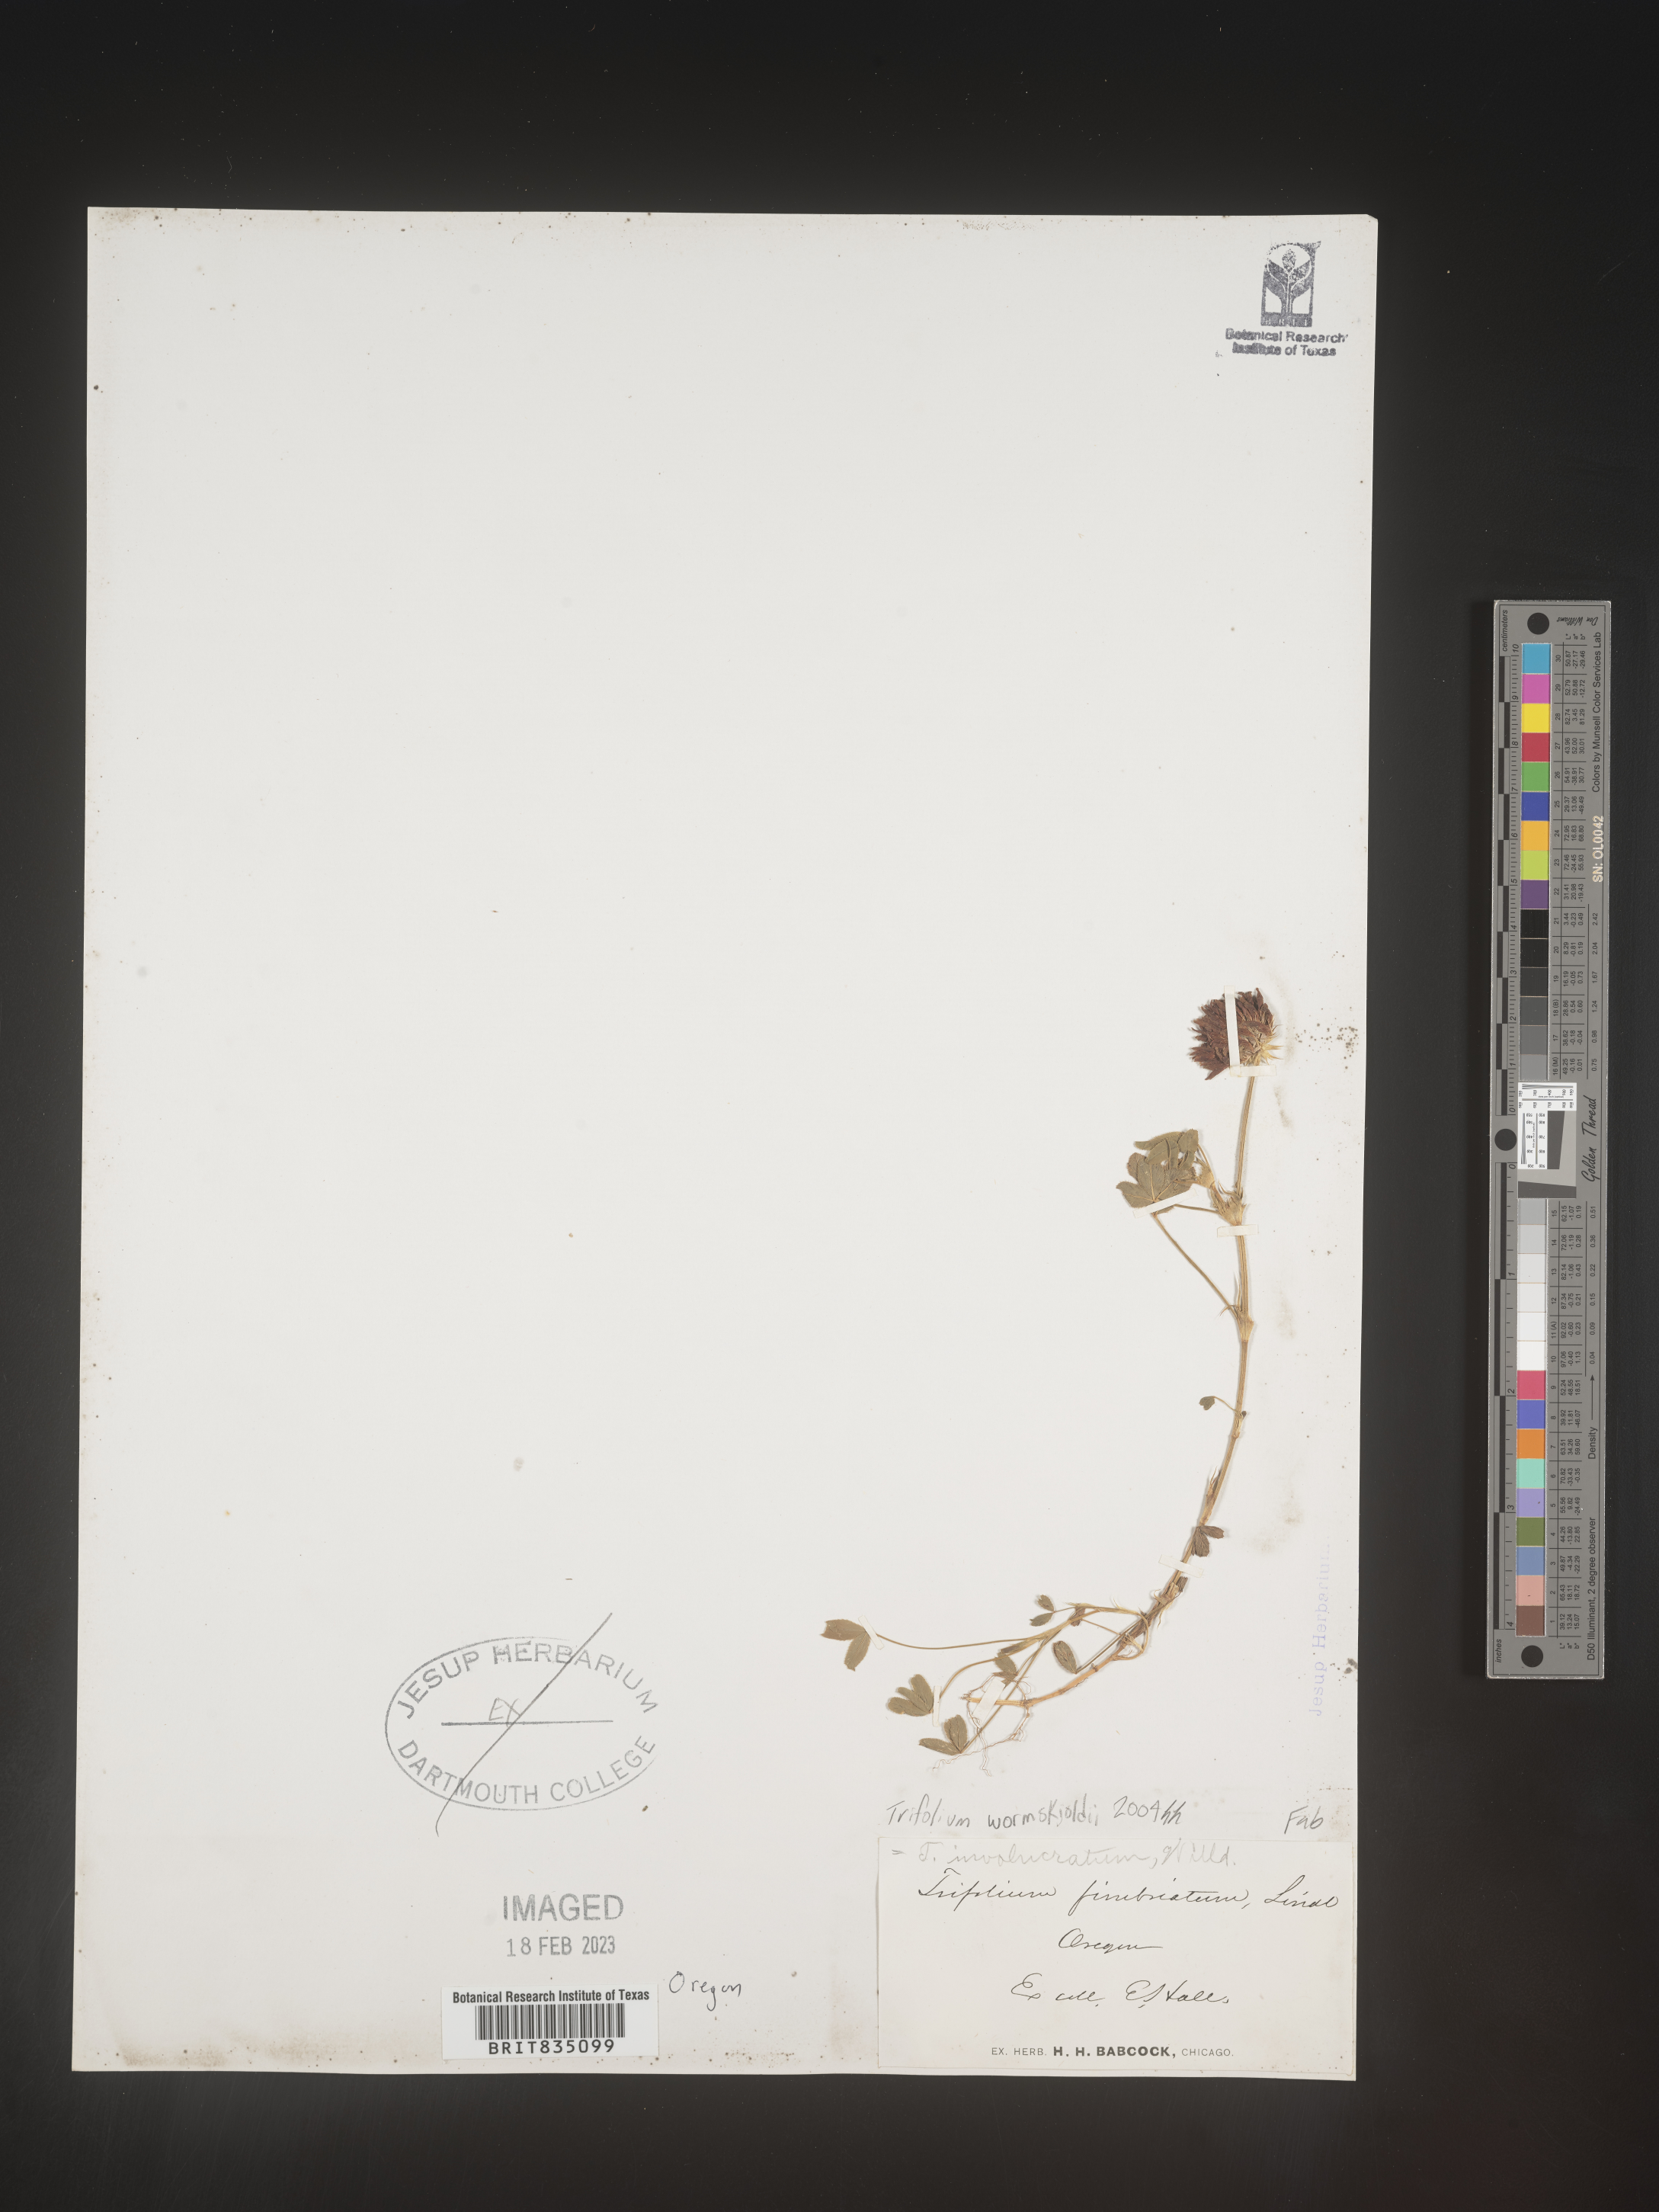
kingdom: Plantae
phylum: Tracheophyta
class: Magnoliopsida
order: Fabales
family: Fabaceae
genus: Trifolium
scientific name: Trifolium wormskioldii
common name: Springbank clover
